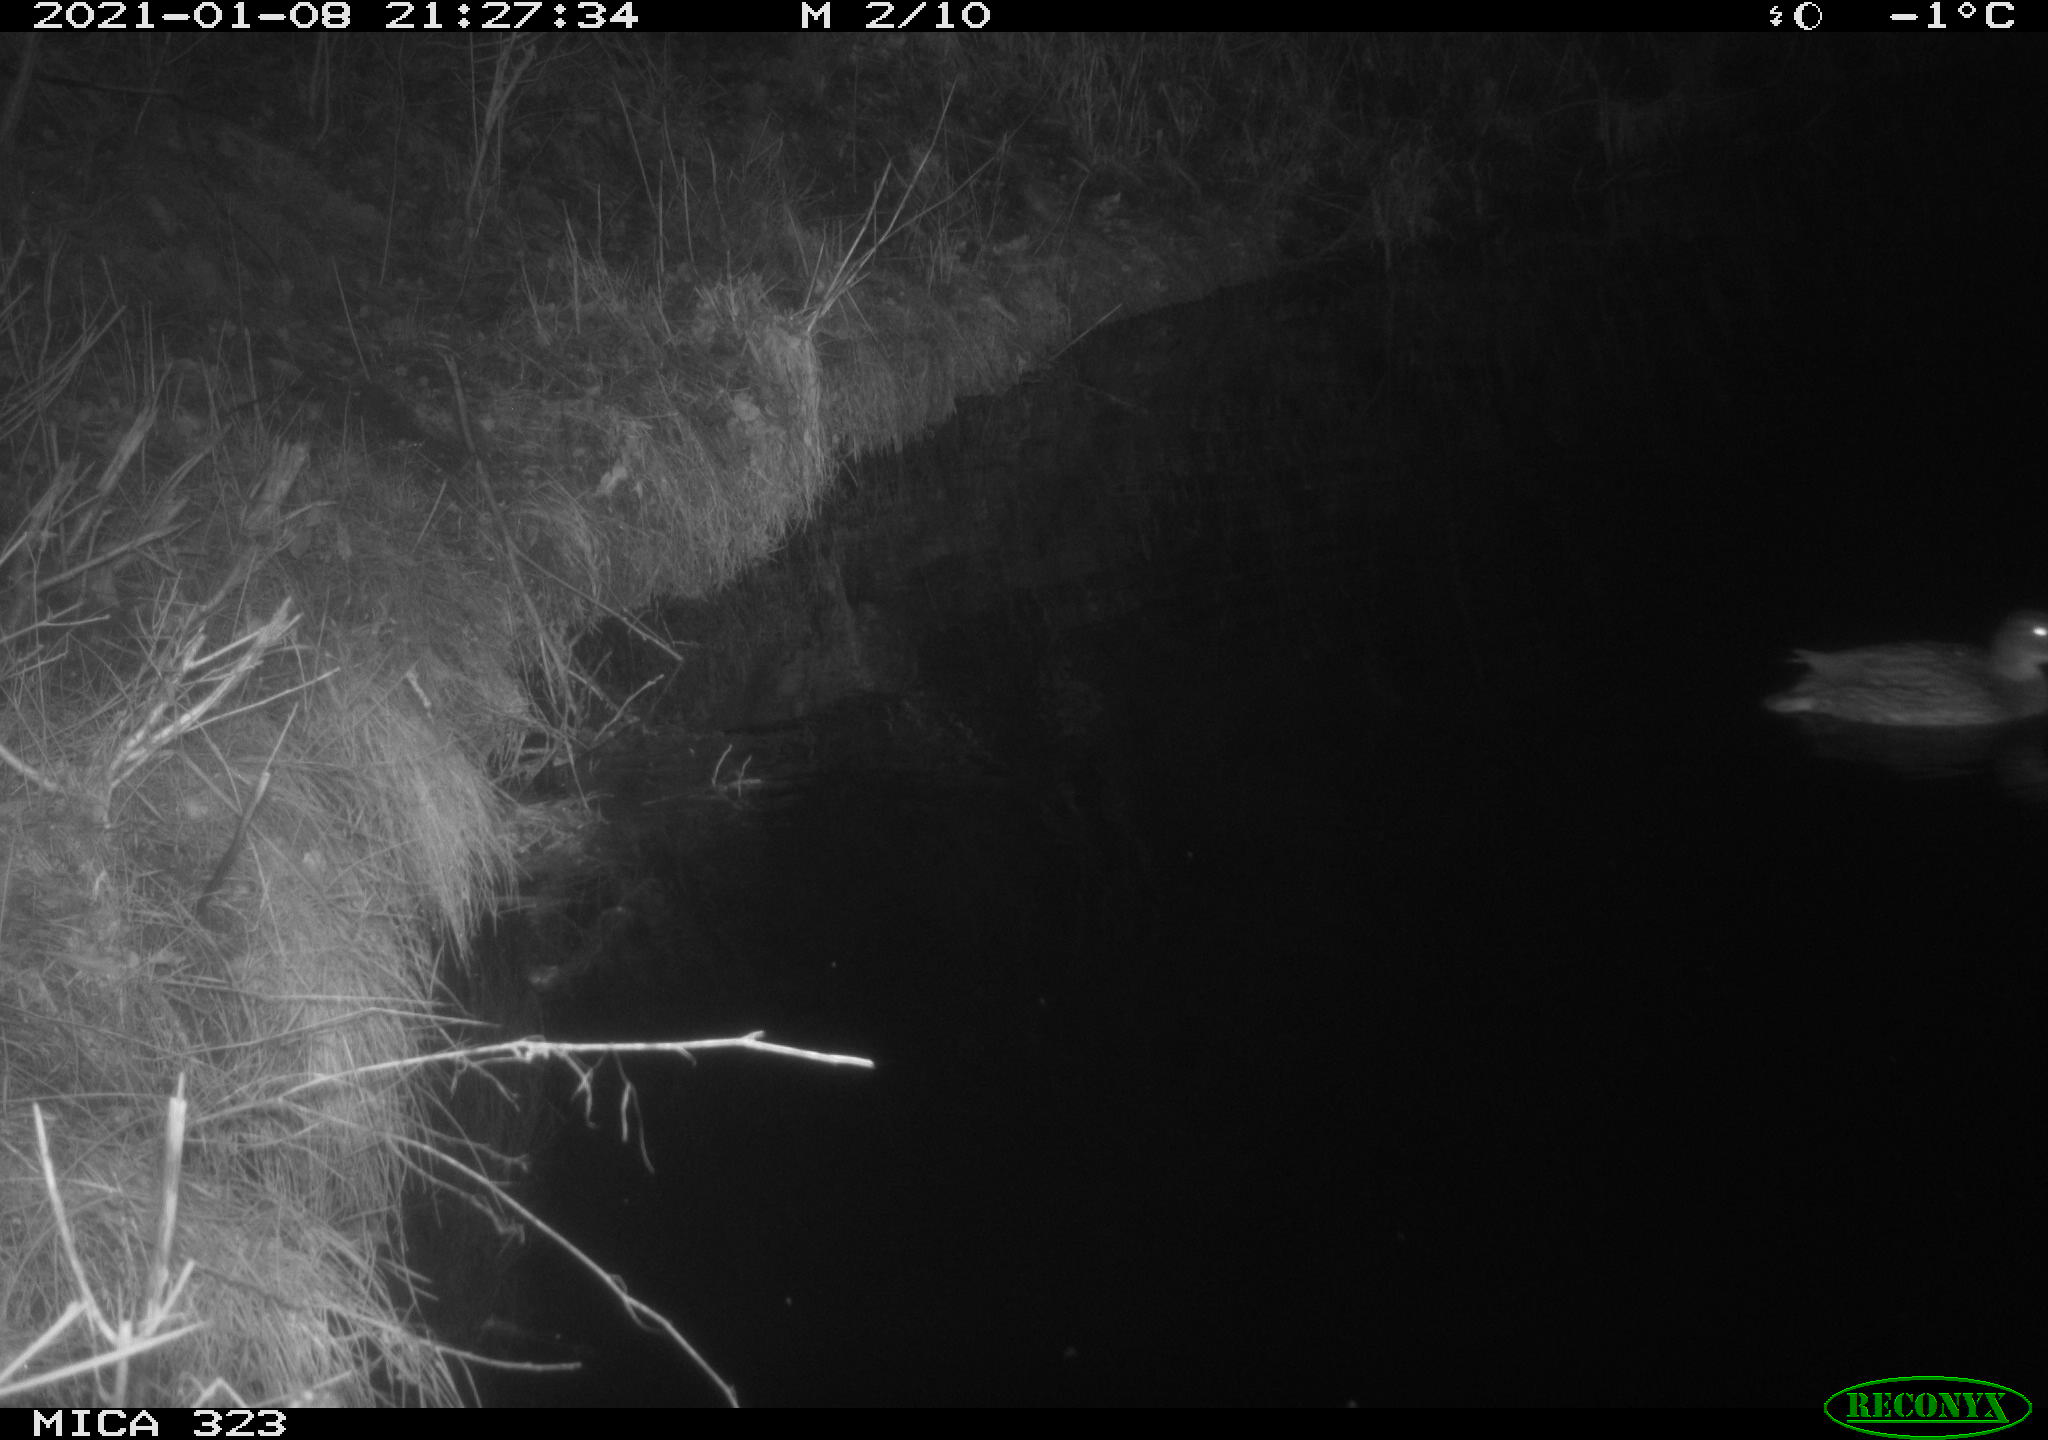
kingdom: Animalia
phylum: Chordata
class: Aves
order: Anseriformes
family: Anatidae
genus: Anas
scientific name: Anas platyrhynchos
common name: Mallard
